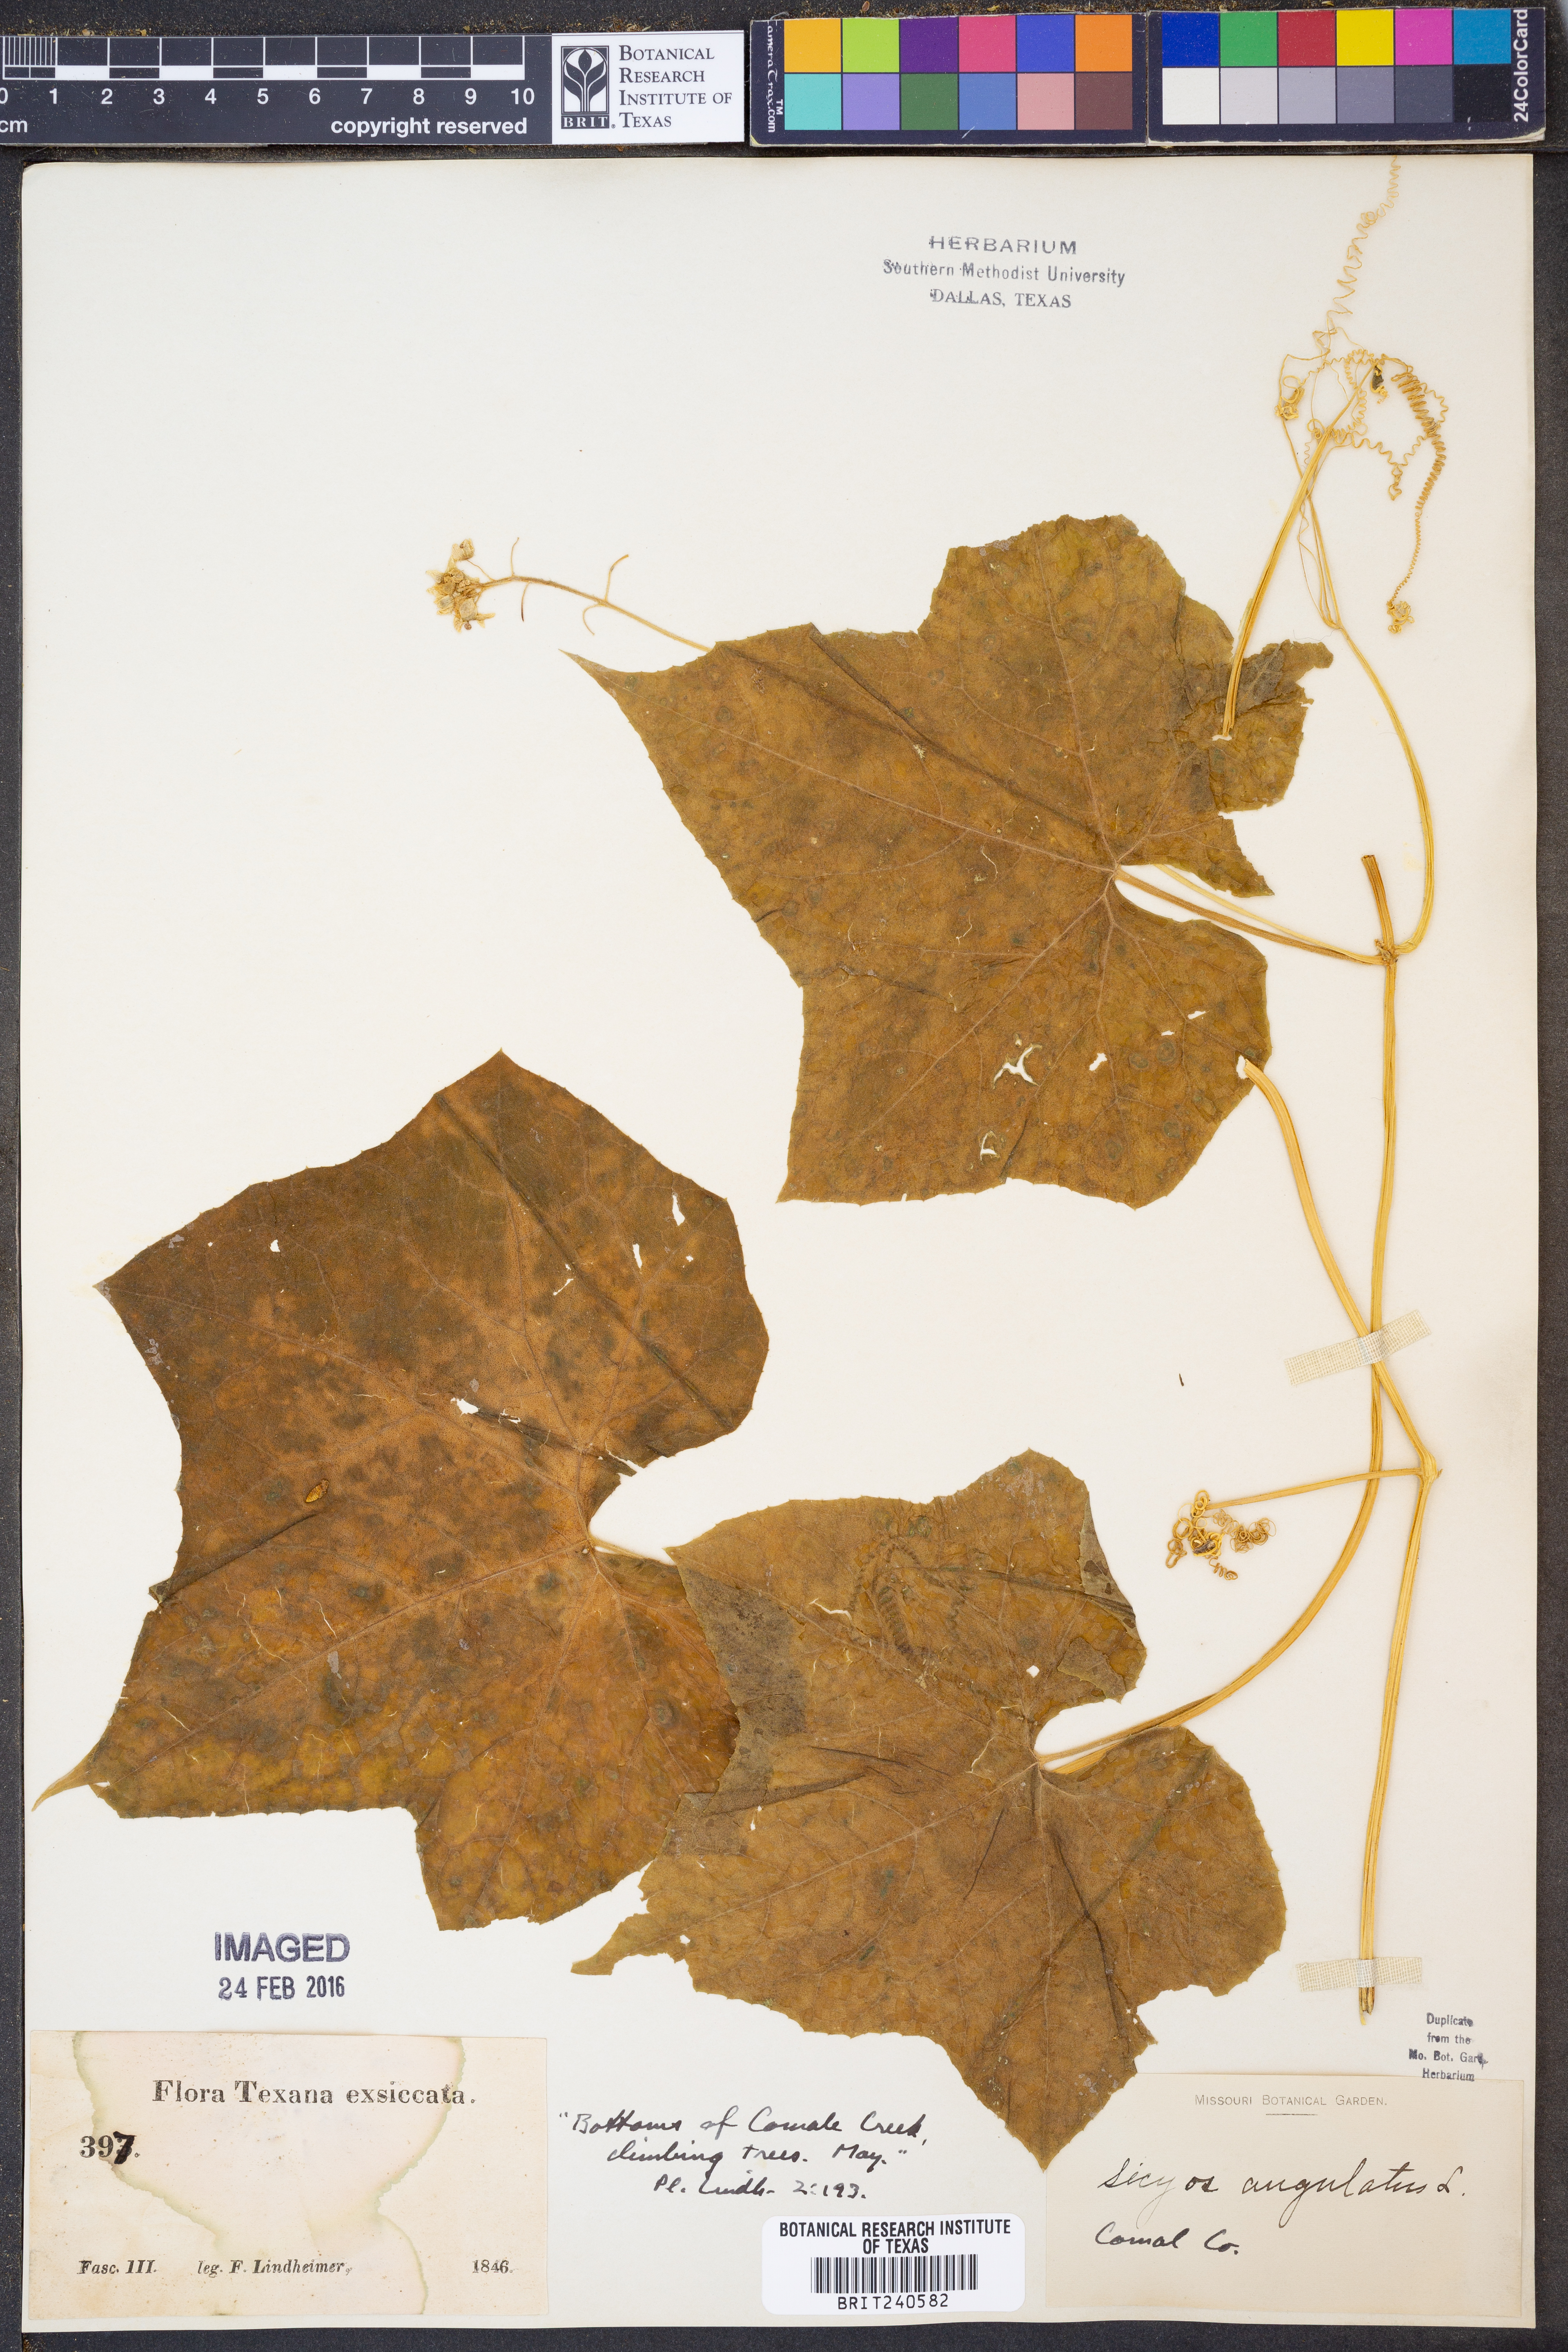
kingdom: Plantae
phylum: Tracheophyta
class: Magnoliopsida
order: Cucurbitales
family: Cucurbitaceae
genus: Sicyos
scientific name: Sicyos angulatus
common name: Angled burr cucumber
